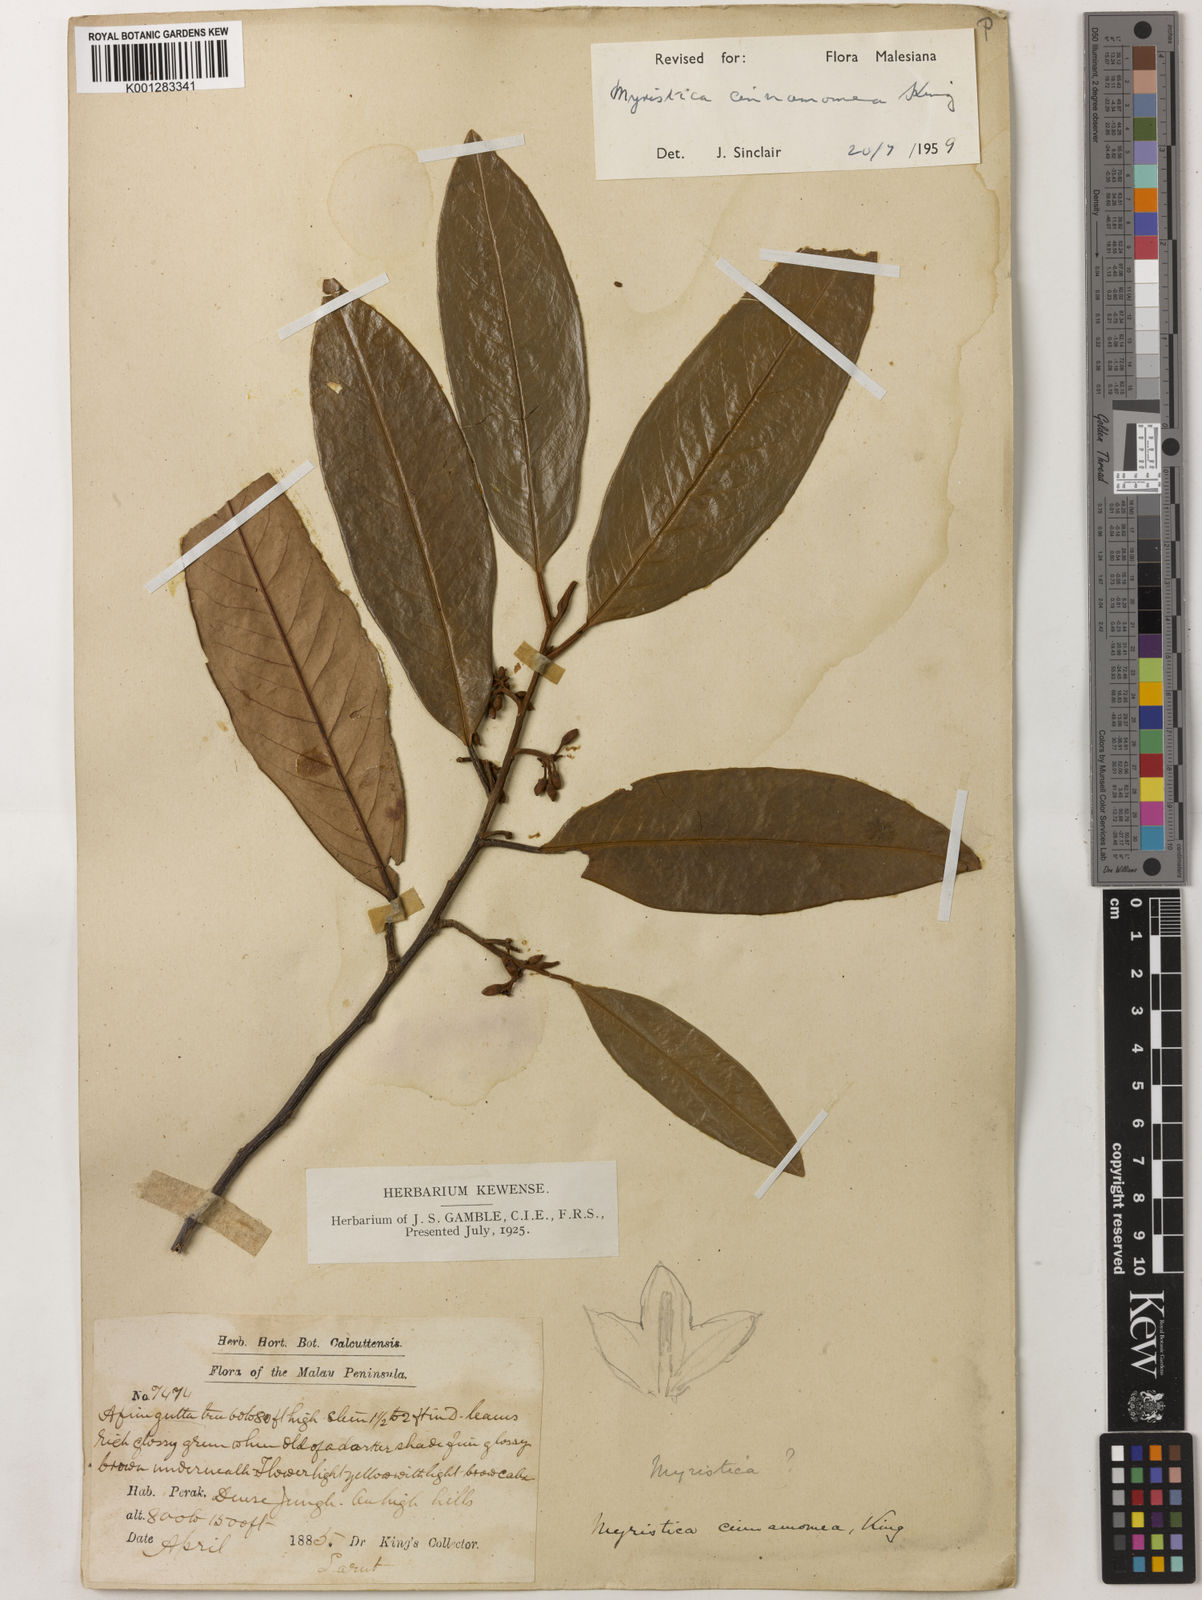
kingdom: Plantae
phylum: Tracheophyta
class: Magnoliopsida
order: Magnoliales
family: Myristicaceae
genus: Myristica
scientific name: Myristica cinnamomea
